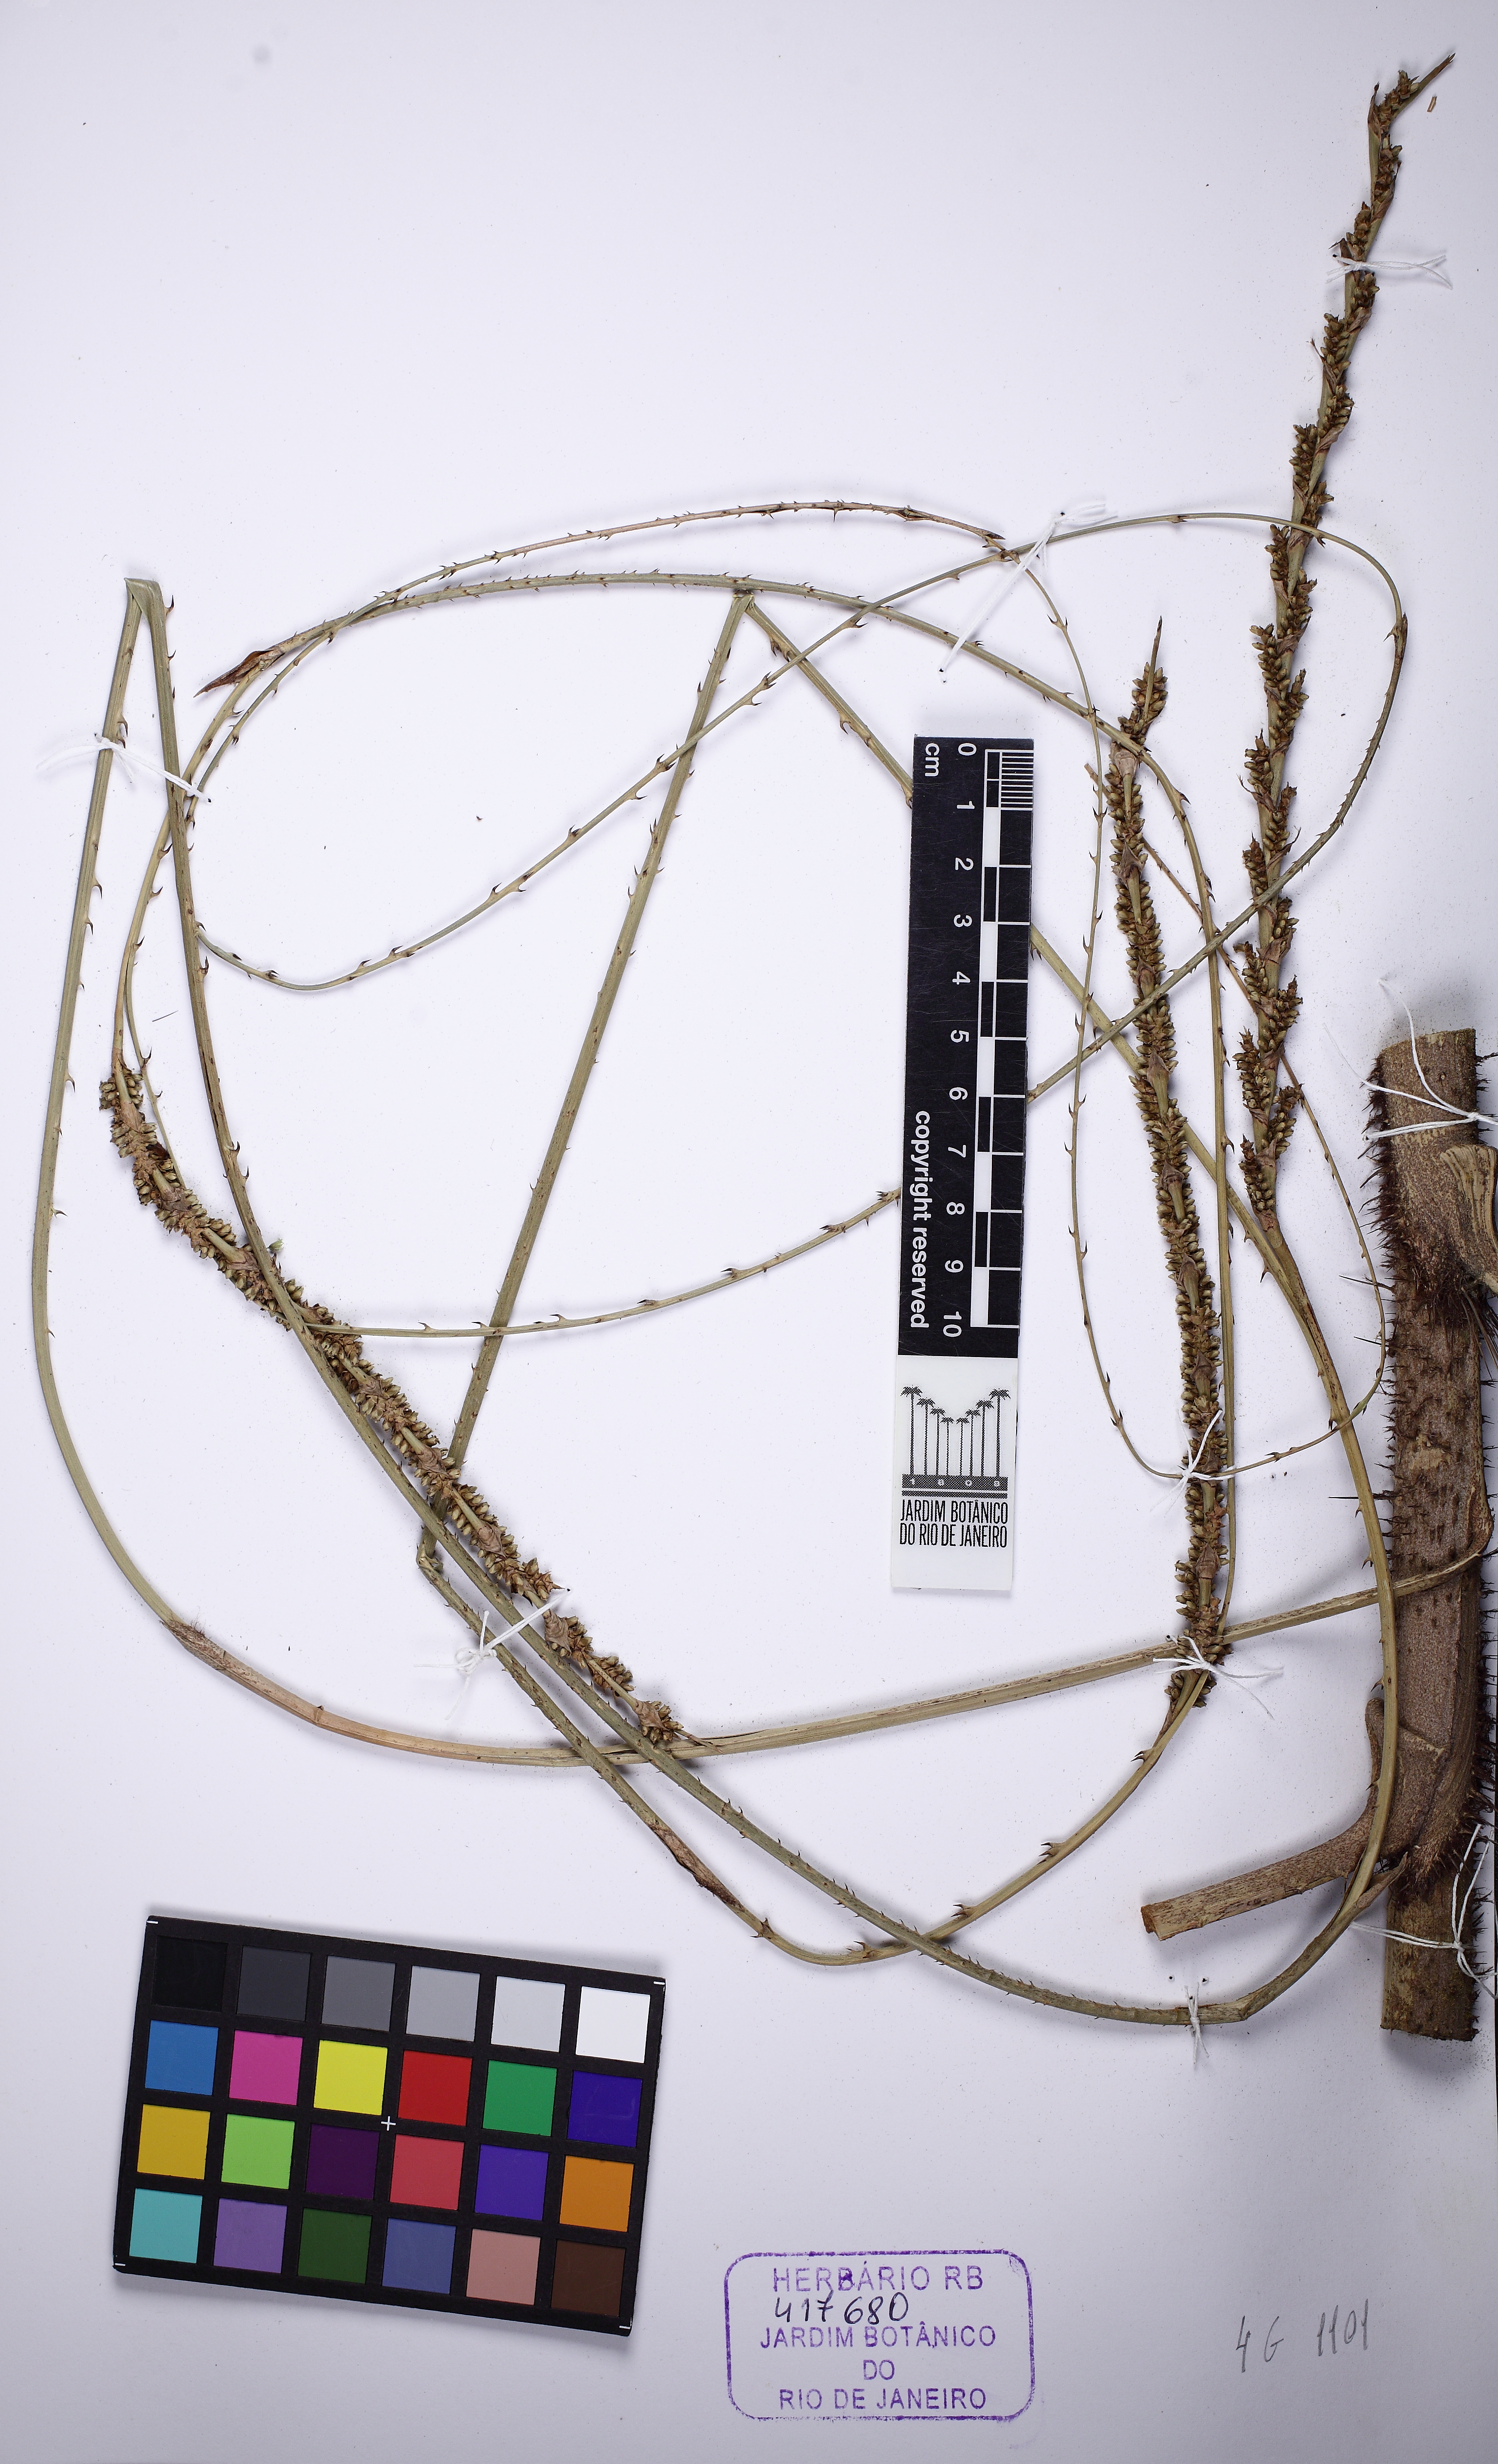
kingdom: Plantae
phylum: Tracheophyta
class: Liliopsida
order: Arecales
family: Arecaceae
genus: Calamus
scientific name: Calamus
